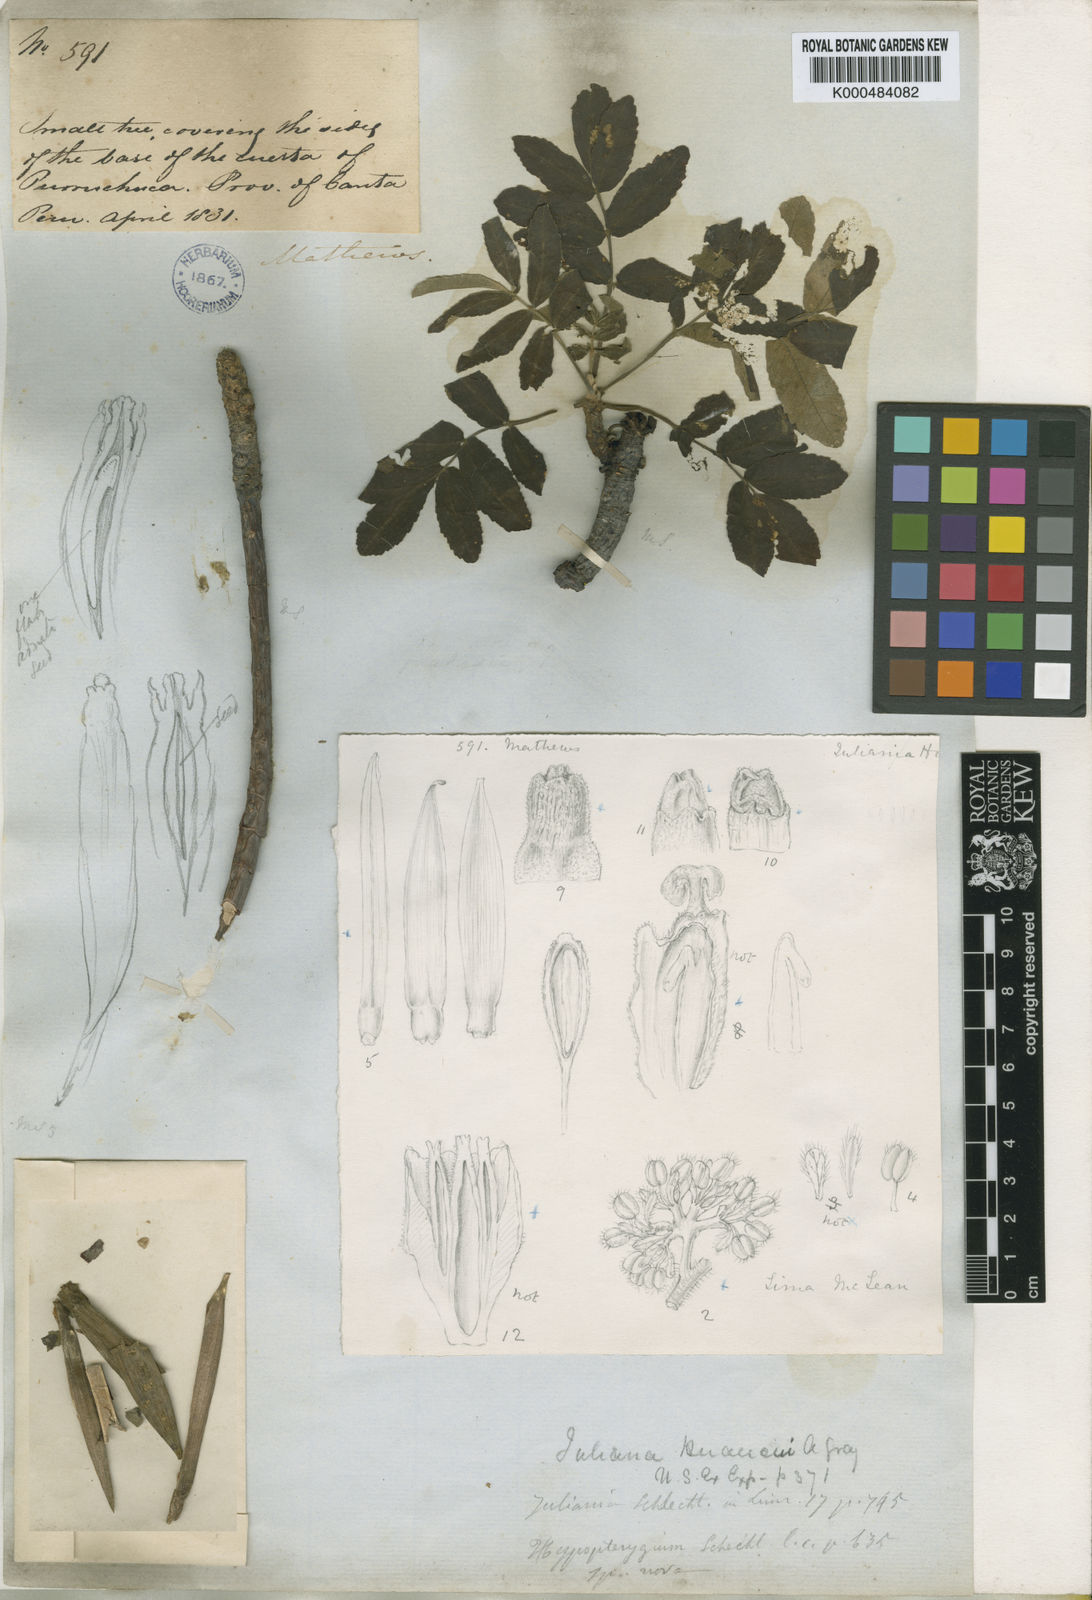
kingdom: Plantae
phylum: Tracheophyta
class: Magnoliopsida
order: Sapindales
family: Anacardiaceae
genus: Orthopterygium
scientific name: Orthopterygium huaucui
